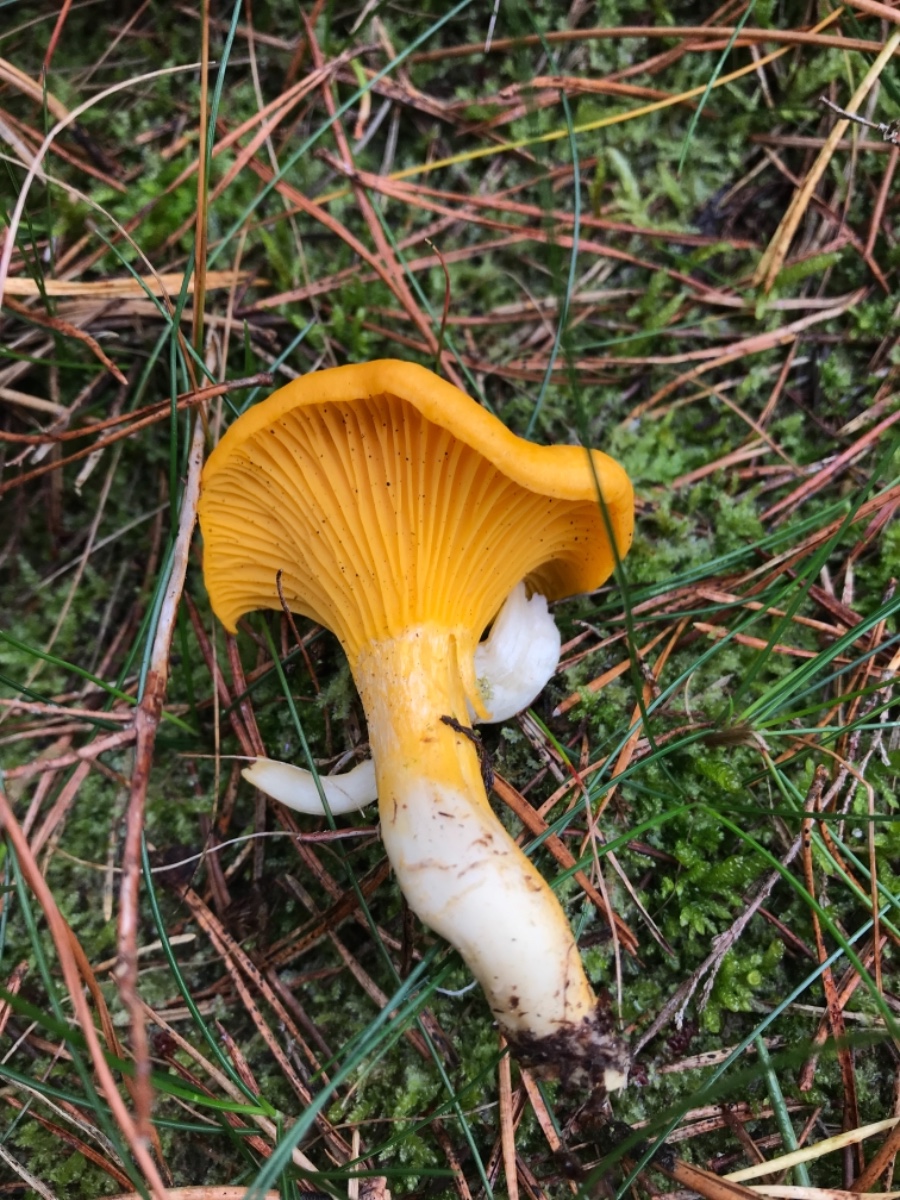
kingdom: Fungi
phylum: Basidiomycota
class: Agaricomycetes
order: Cantharellales
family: Hydnaceae
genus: Cantharellus
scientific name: Cantharellus cibarius
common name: almindelig kantarel
